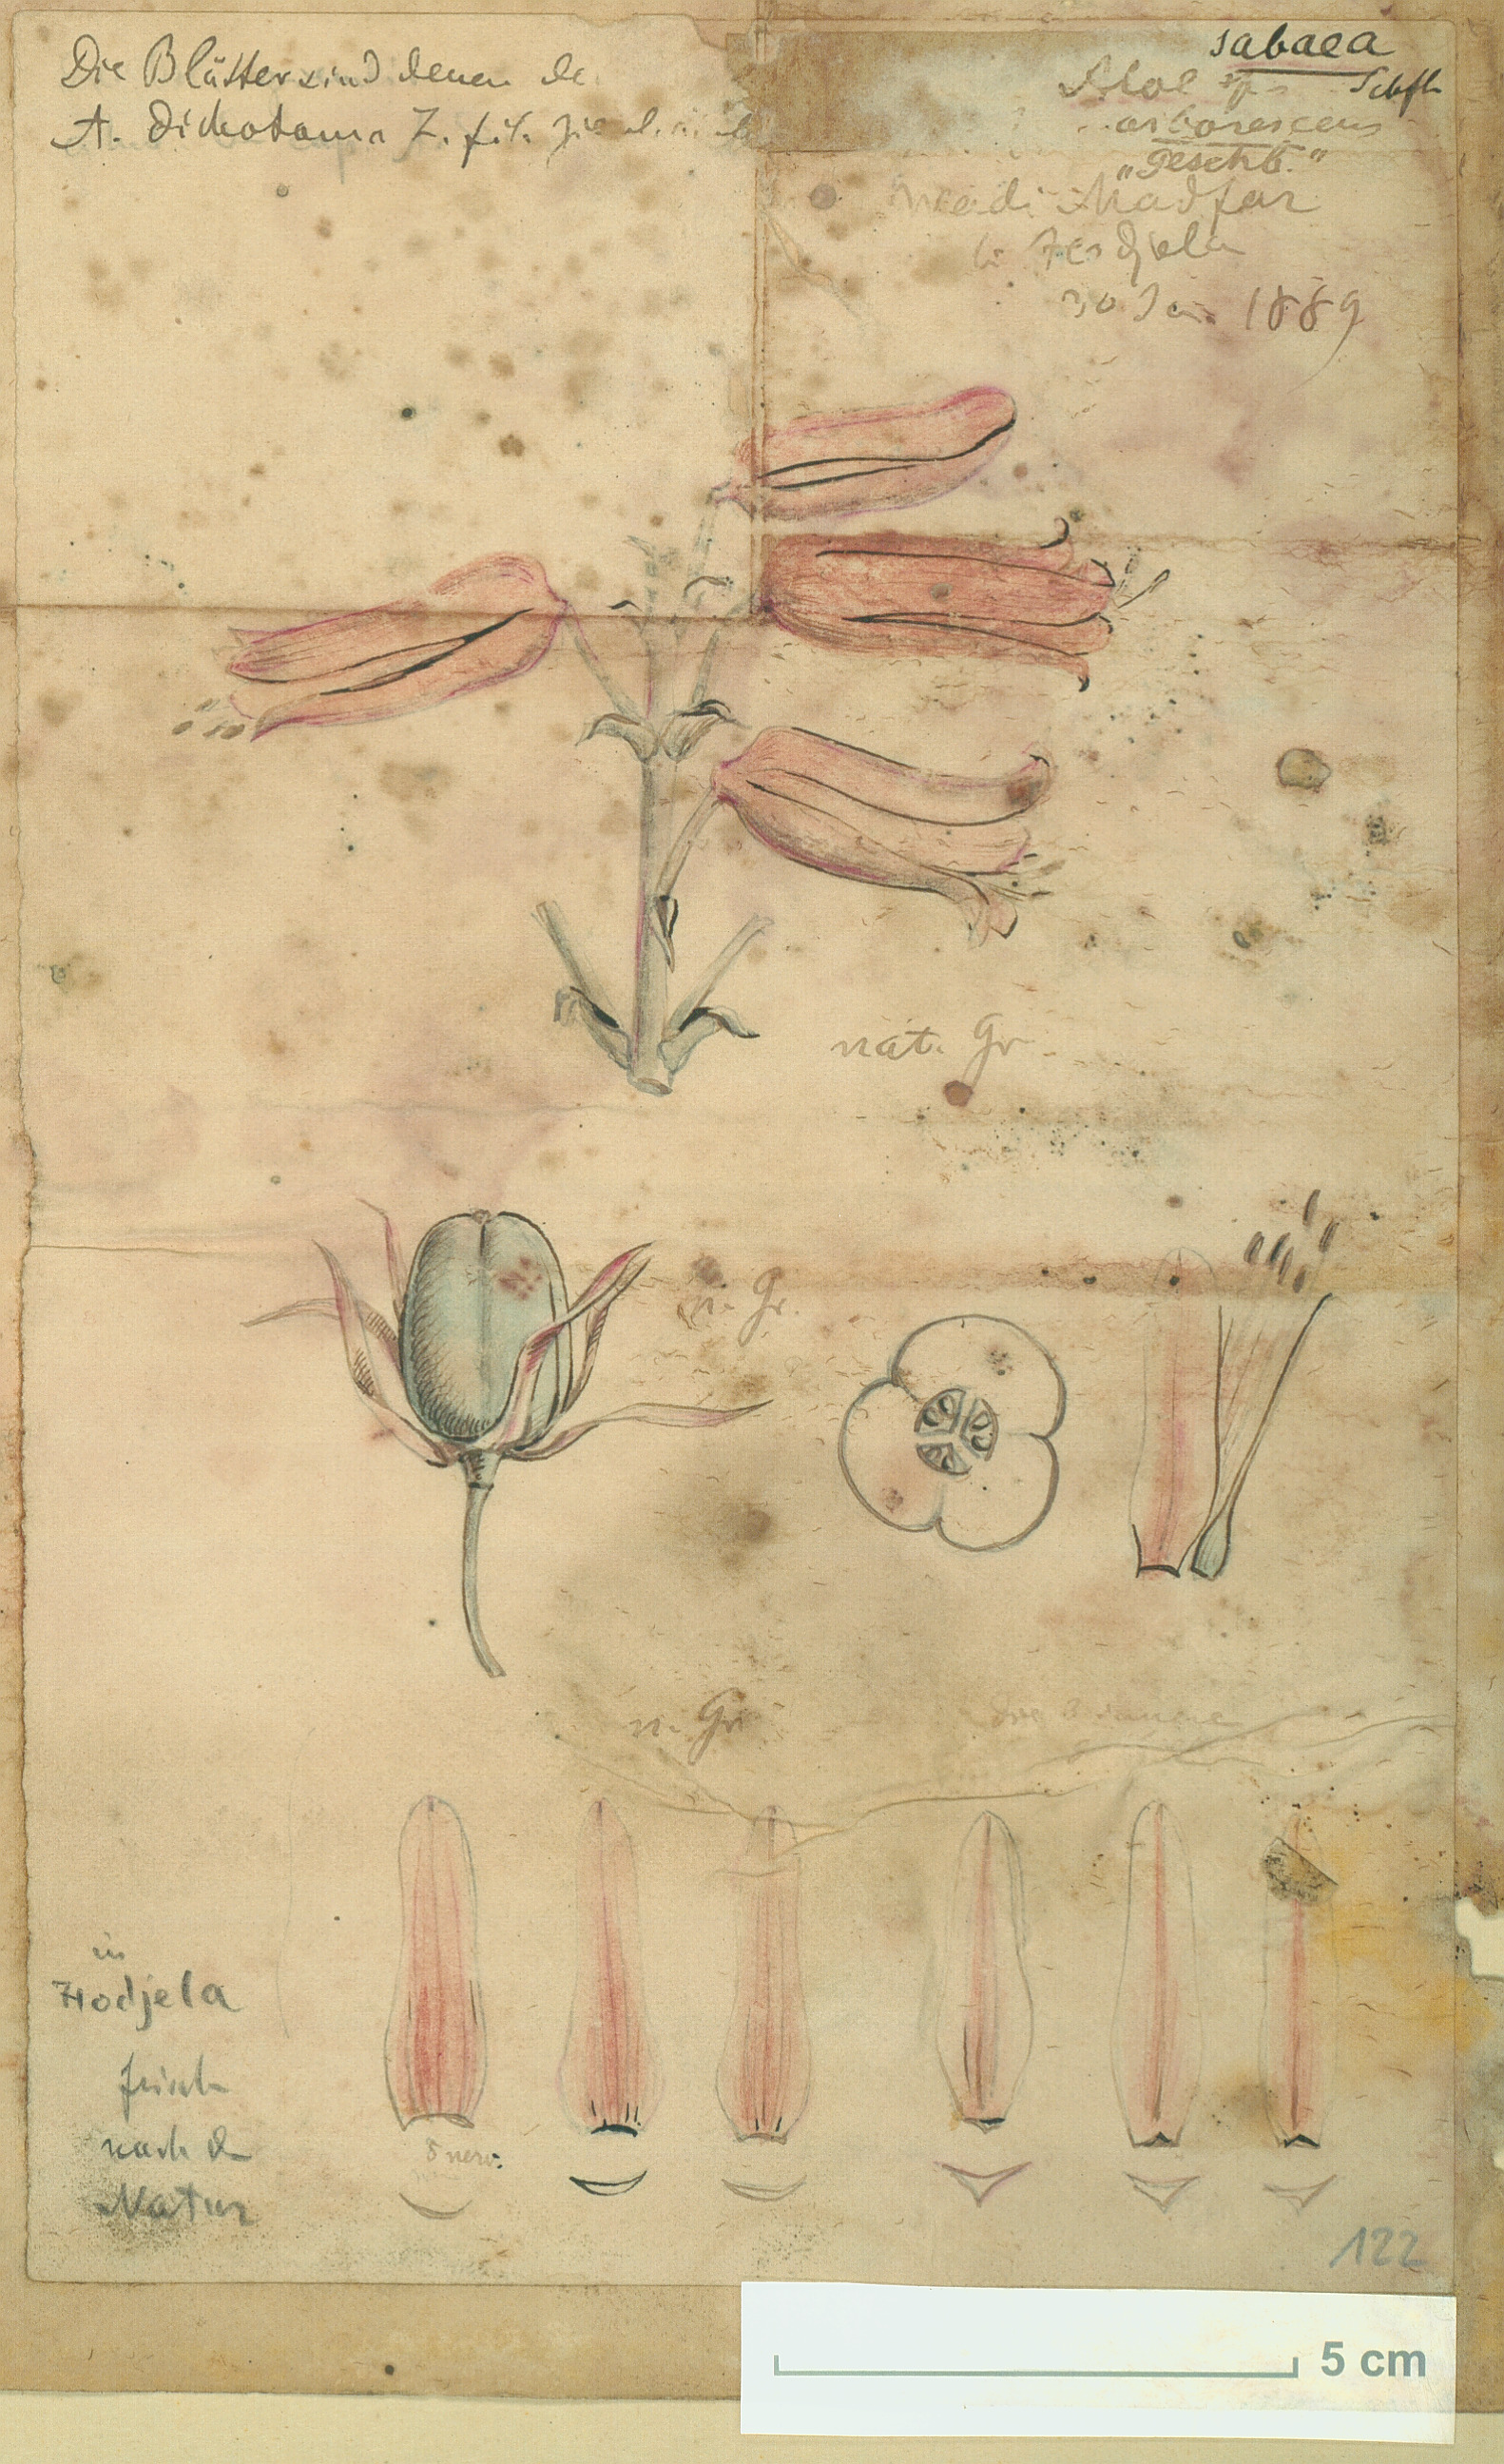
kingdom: Plantae
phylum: Tracheophyta
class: Liliopsida
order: Asparagales
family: Asphodelaceae
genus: Aloidendron
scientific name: Aloidendron sabaeum
